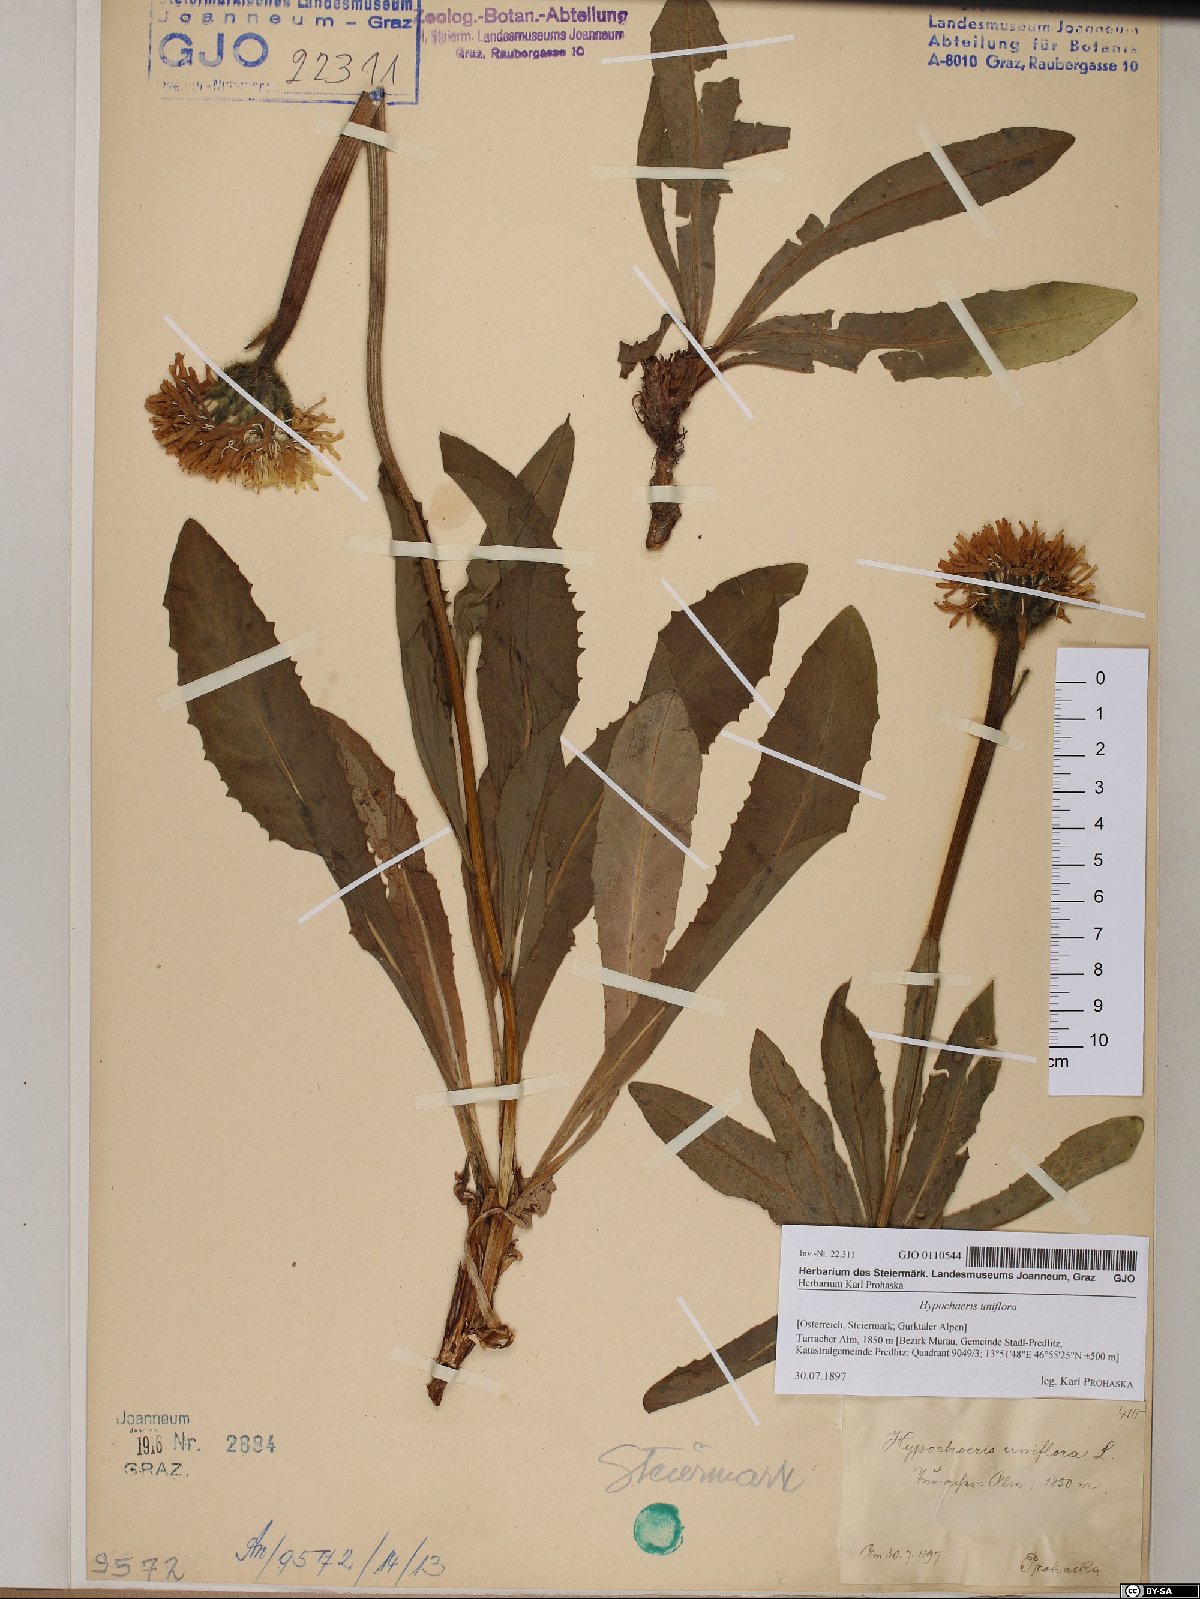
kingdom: Plantae
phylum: Tracheophyta
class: Magnoliopsida
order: Asterales
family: Asteraceae
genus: Trommsdorffia
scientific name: Trommsdorffia uniflora
